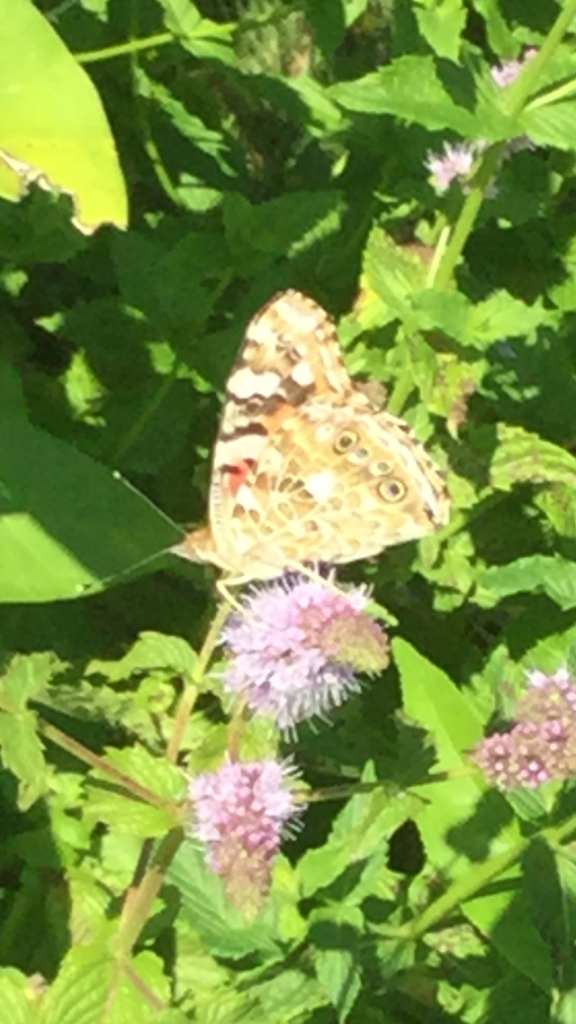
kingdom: Animalia
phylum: Arthropoda
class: Insecta
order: Lepidoptera
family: Nymphalidae
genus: Vanessa
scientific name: Vanessa cardui
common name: Painted Lady
